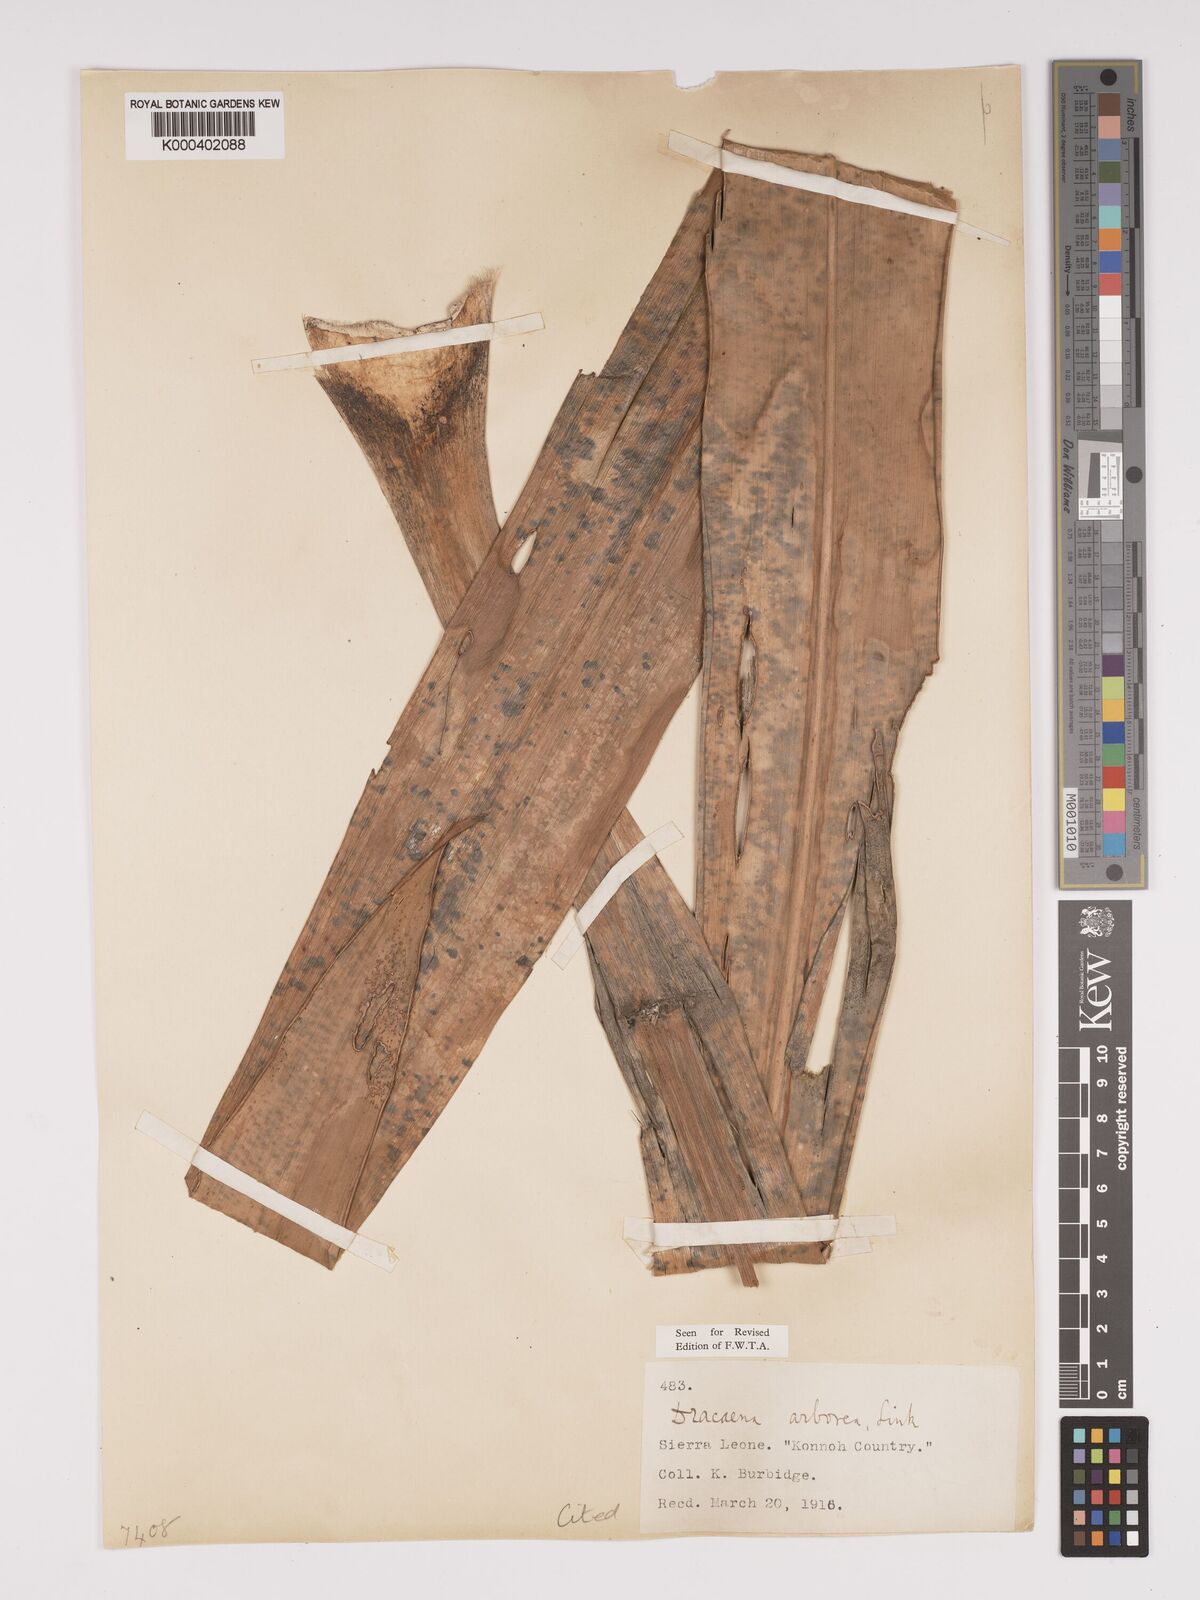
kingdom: Plantae
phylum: Tracheophyta
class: Liliopsida
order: Asparagales
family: Asparagaceae
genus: Dracaena
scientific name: Dracaena arborea
